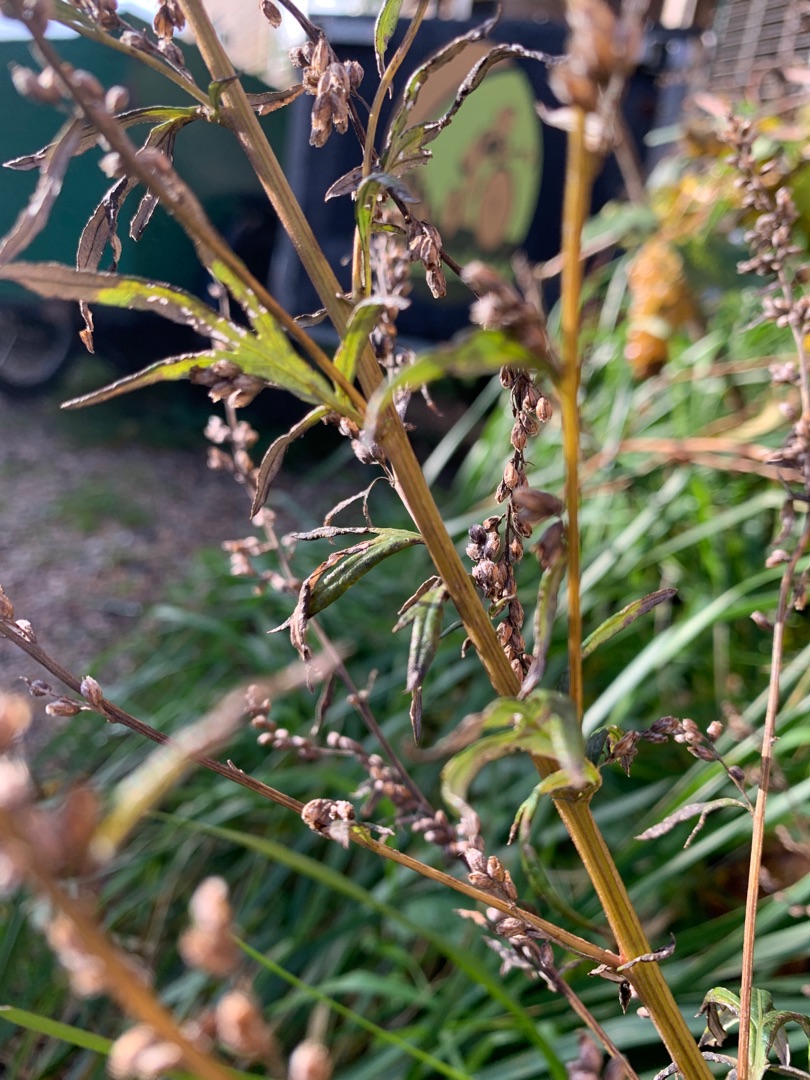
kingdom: Plantae
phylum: Tracheophyta
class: Magnoliopsida
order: Asterales
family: Asteraceae
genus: Artemisia
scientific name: Artemisia vulgaris
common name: Grå-bynke
